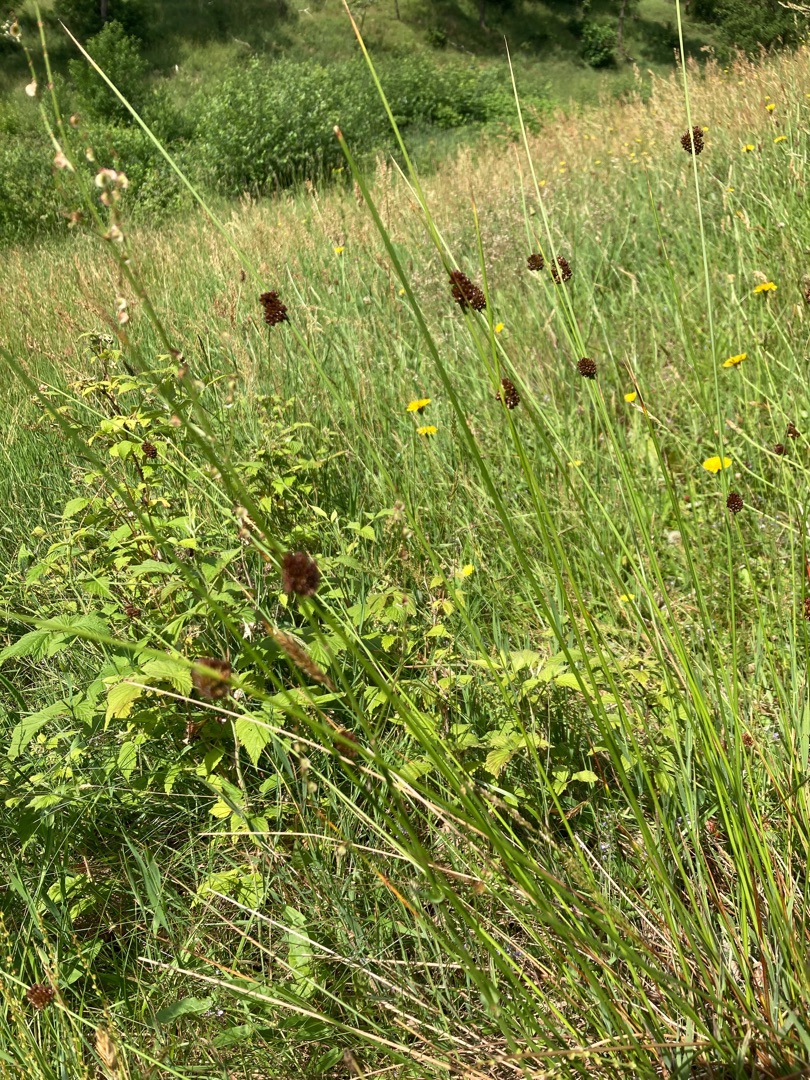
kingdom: Plantae
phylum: Tracheophyta
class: Liliopsida
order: Poales
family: Juncaceae
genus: Juncus
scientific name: Juncus conglomeratus
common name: Knop-siv
